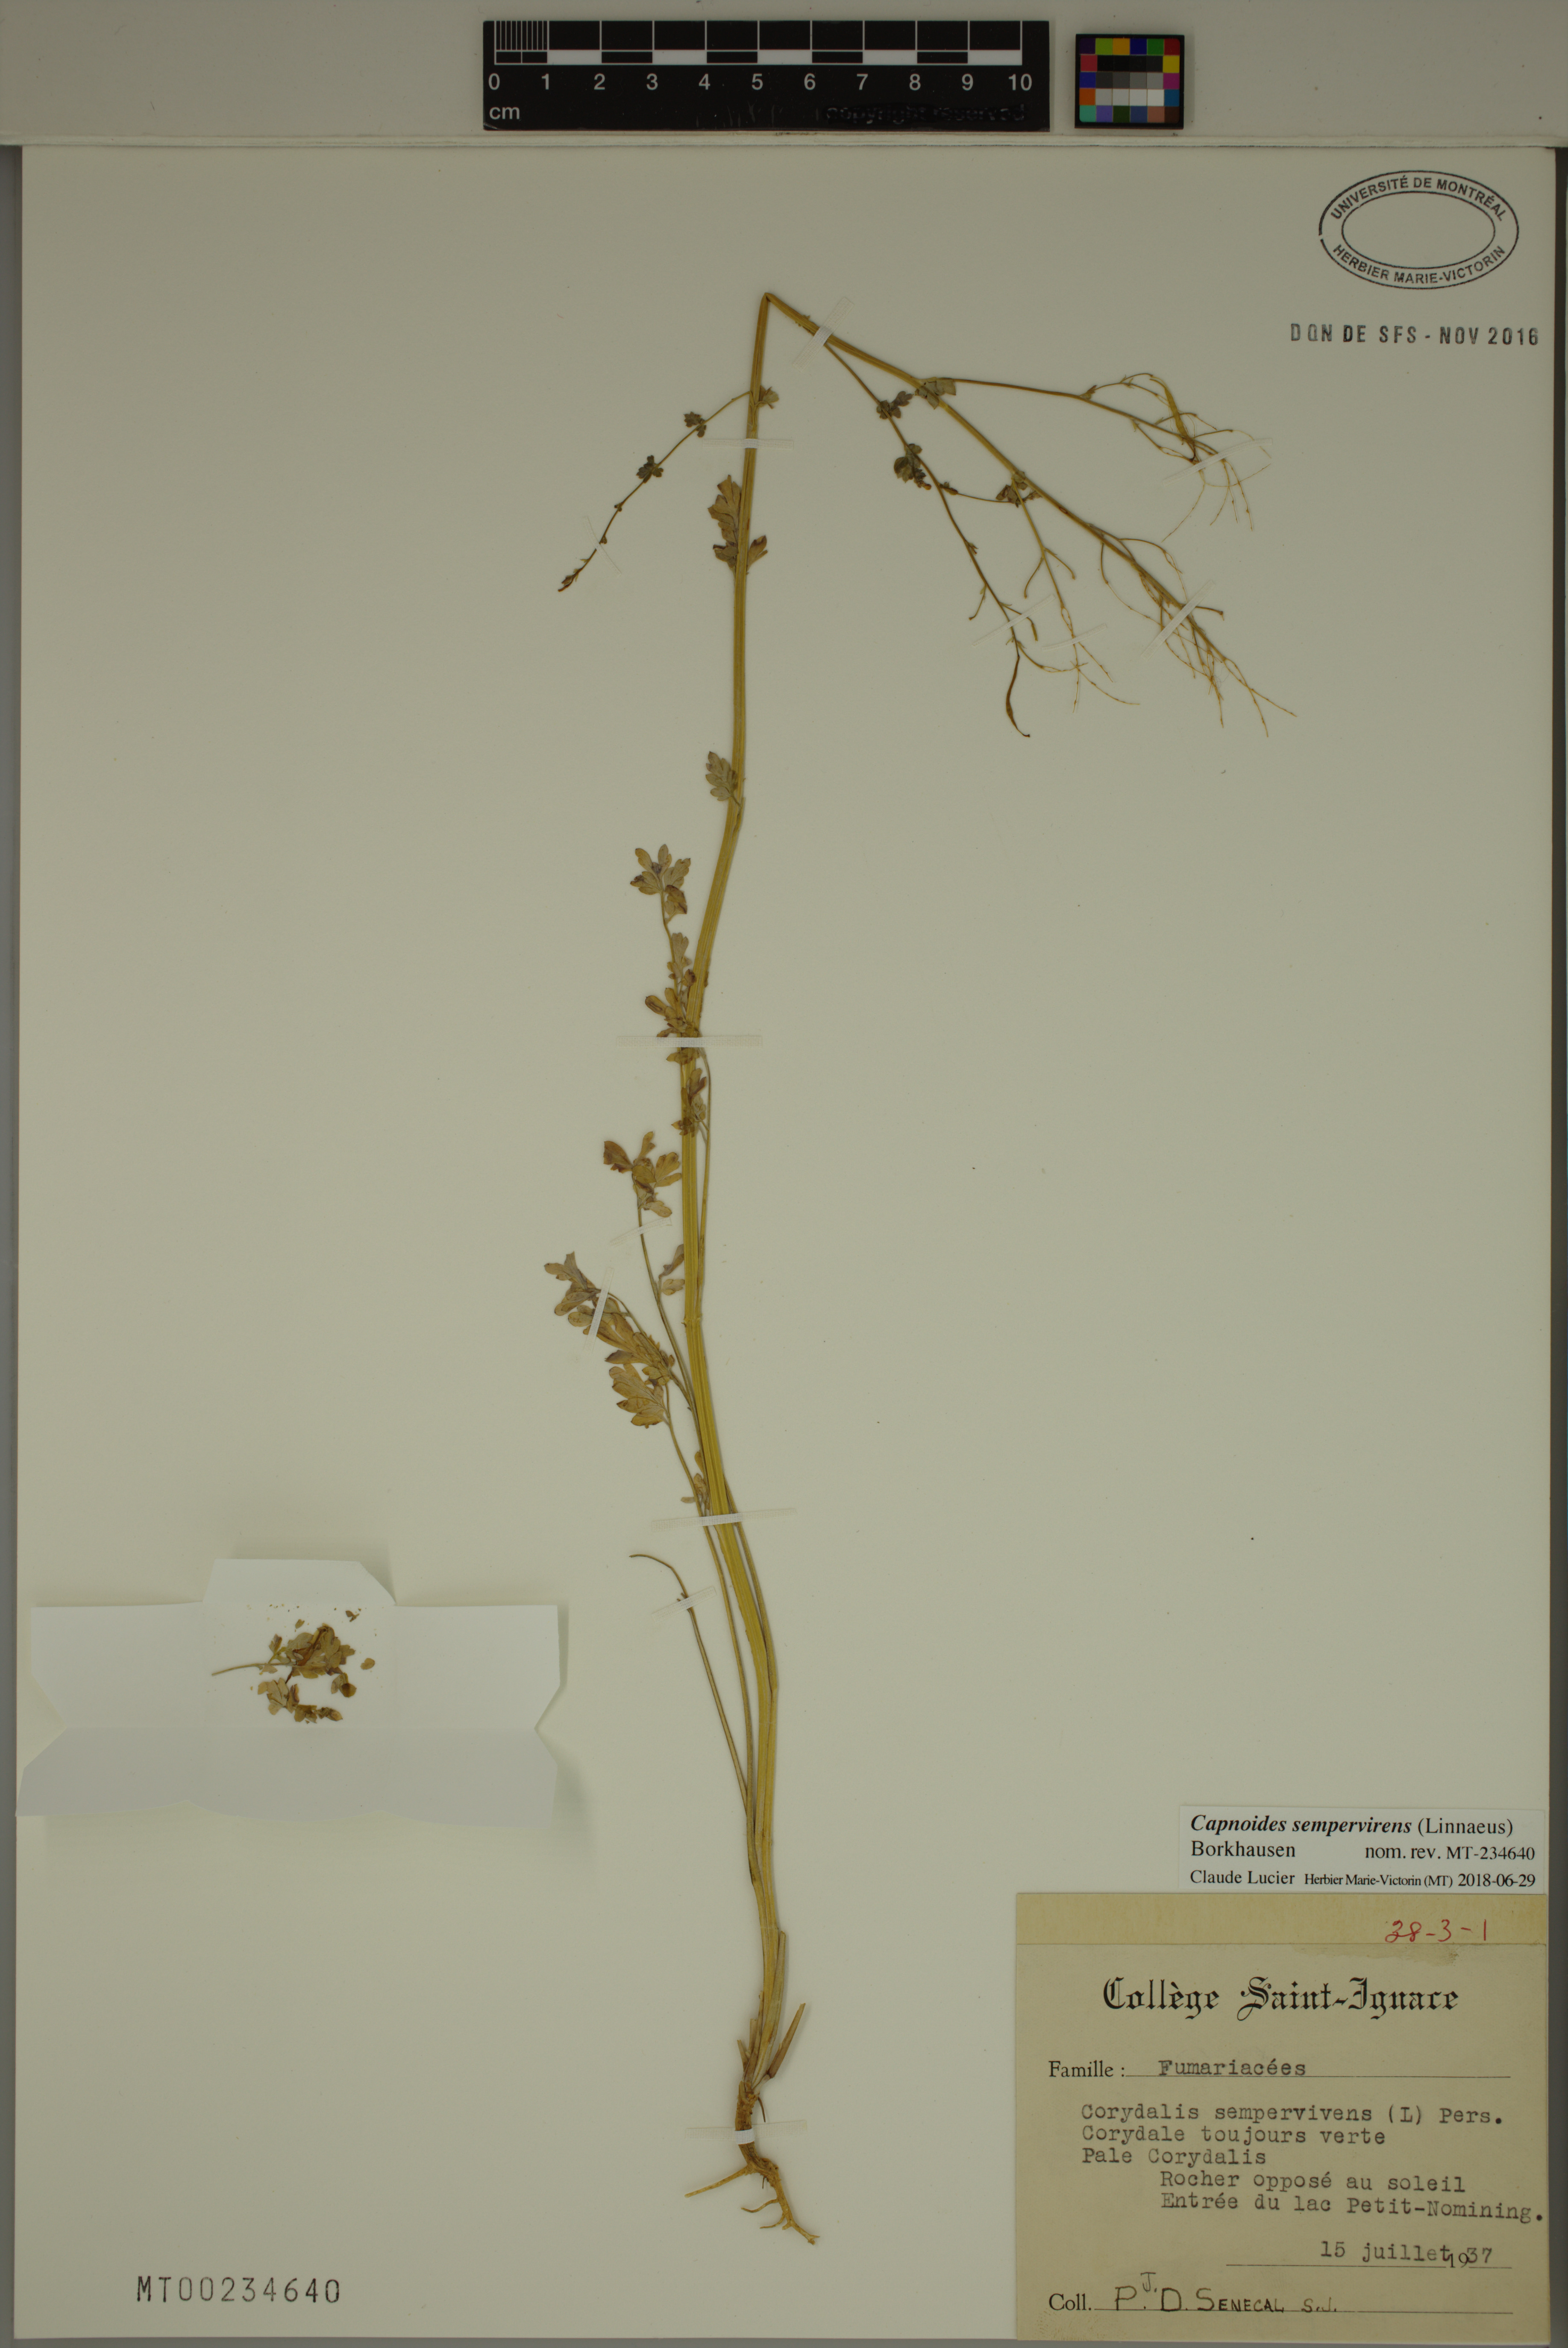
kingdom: Plantae
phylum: Tracheophyta
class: Magnoliopsida
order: Ranunculales
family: Papaveraceae
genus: Capnoides
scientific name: Capnoides sempervirens
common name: Rock harlequin
